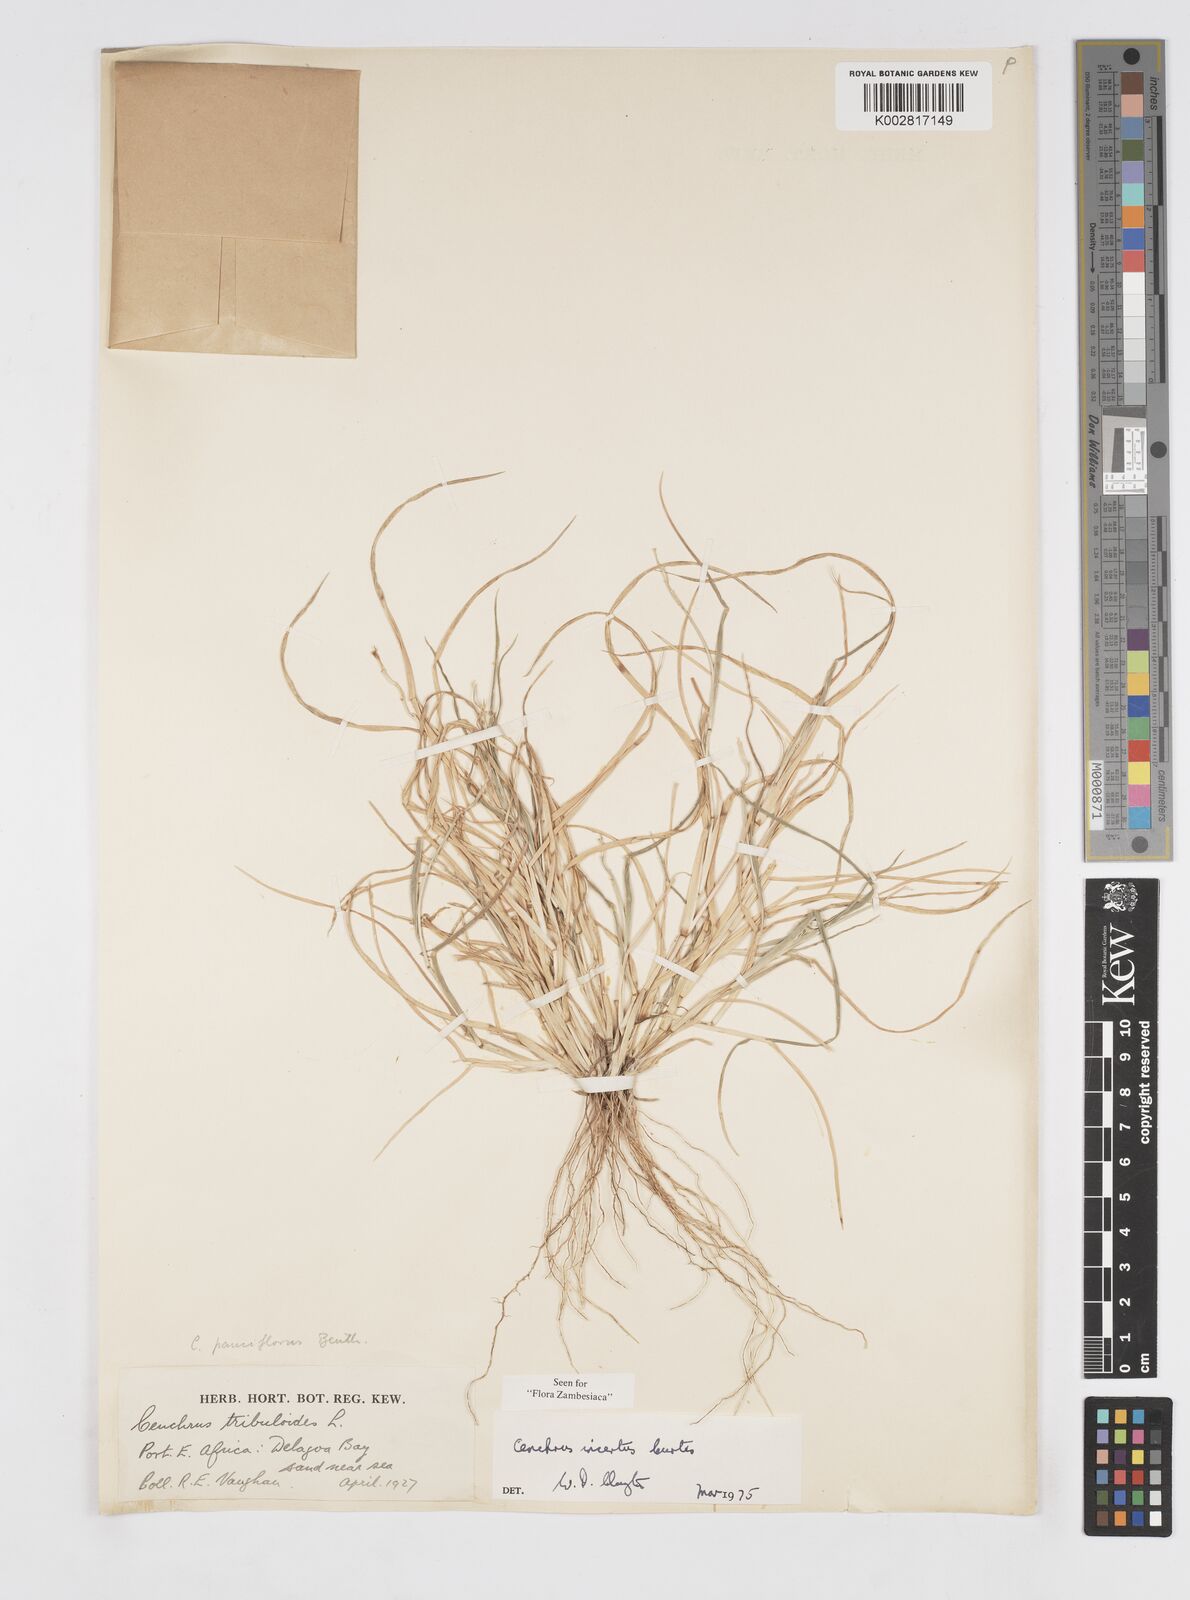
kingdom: Plantae
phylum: Tracheophyta
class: Liliopsida
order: Poales
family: Poaceae
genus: Cenchrus
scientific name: Cenchrus spinifex
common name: Coast sandbur
